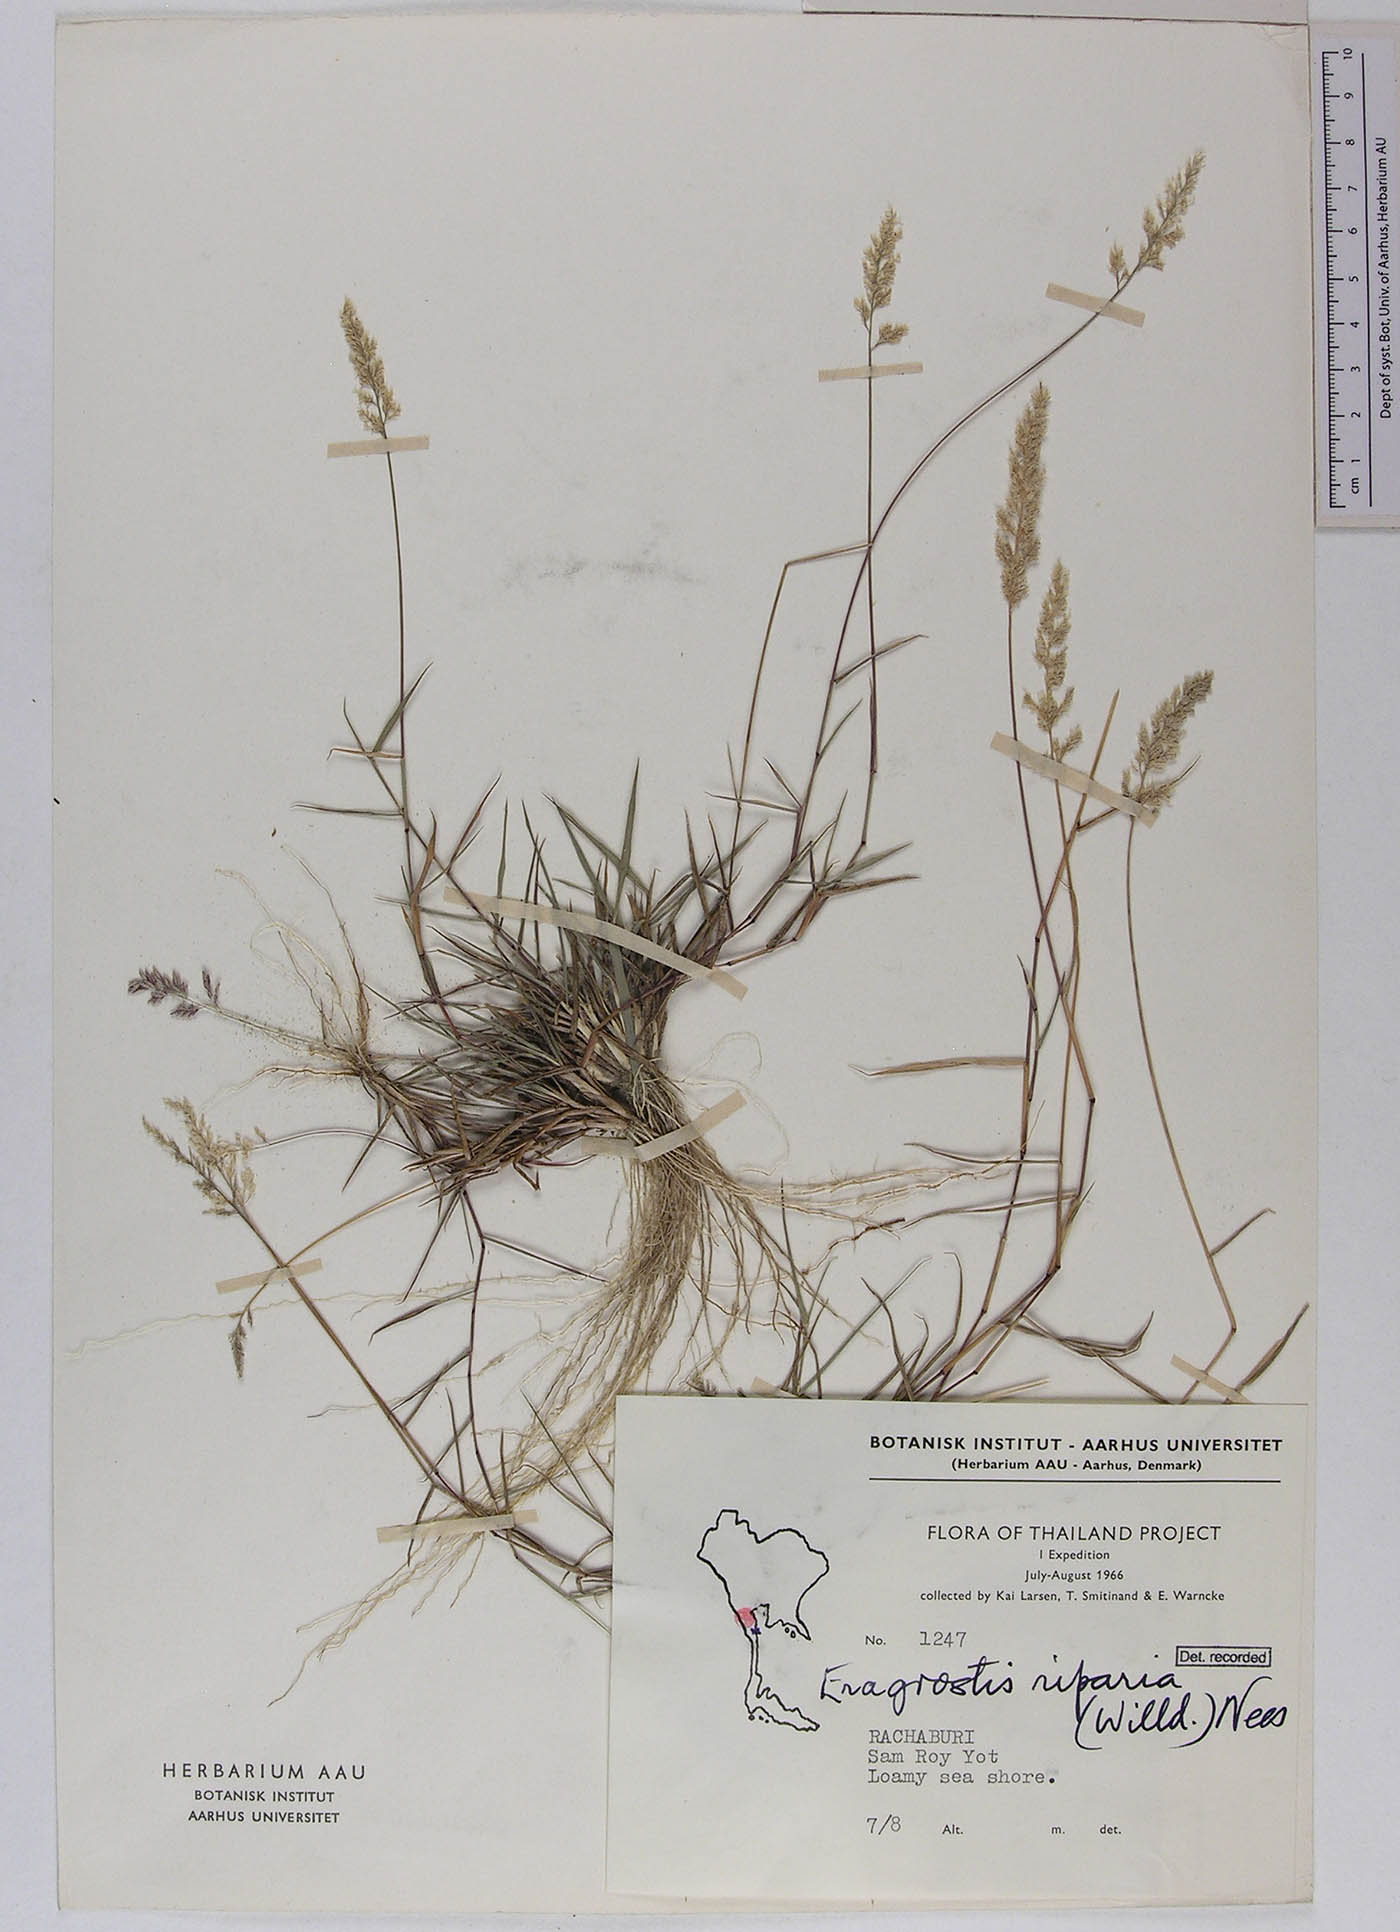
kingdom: Plantae
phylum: Tracheophyta
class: Liliopsida
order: Poales
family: Poaceae
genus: Eragrostis
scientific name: Eragrostis riparia
